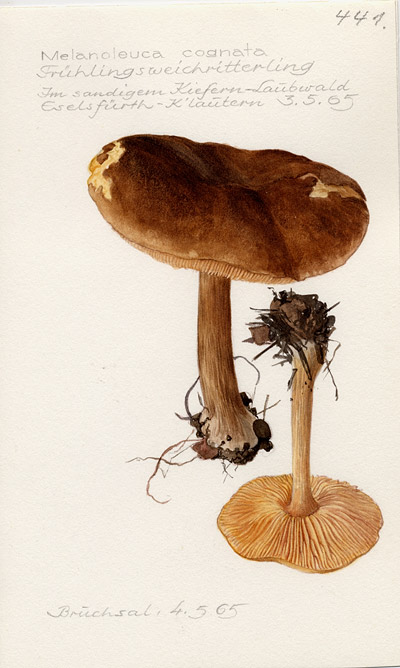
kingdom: Fungi
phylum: Basidiomycota
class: Agaricomycetes
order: Agaricales
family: Tricholomataceae
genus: Melanoleuca
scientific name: Melanoleuca cognata
